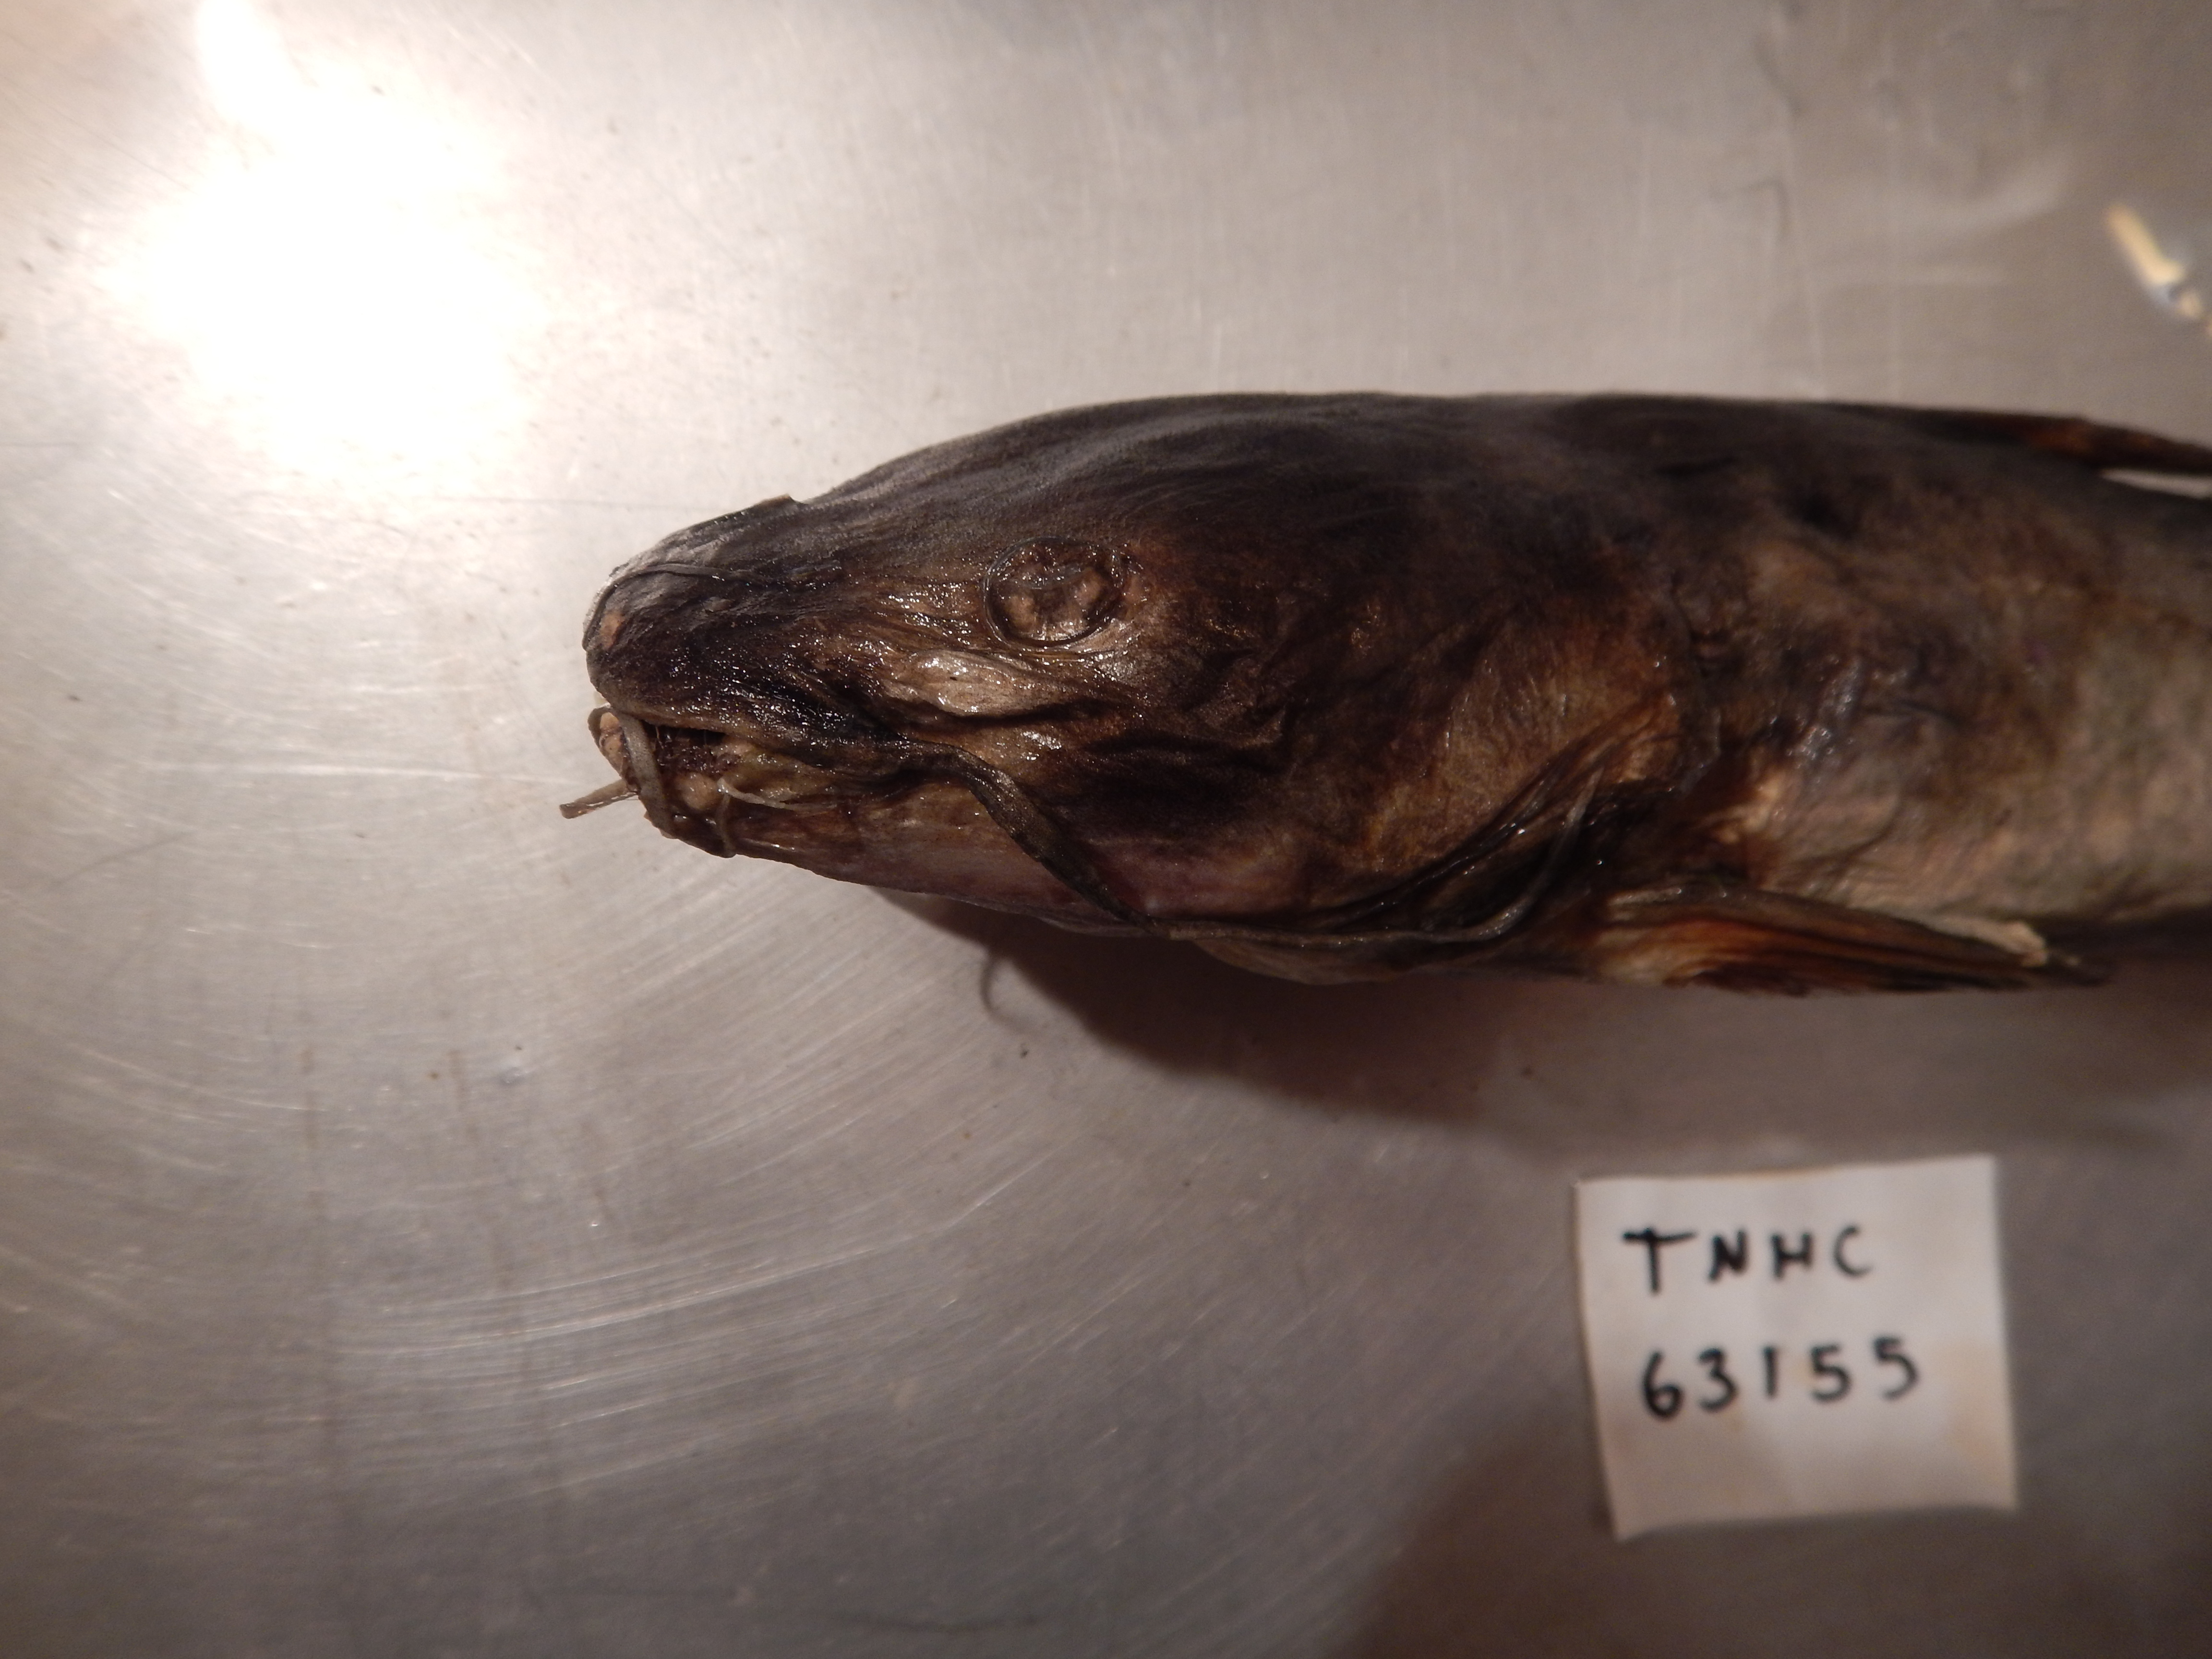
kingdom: Animalia
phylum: Chordata
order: Siluriformes
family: Ictaluridae
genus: Ictalurus
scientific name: Ictalurus pricei
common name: Yaqui catfish
